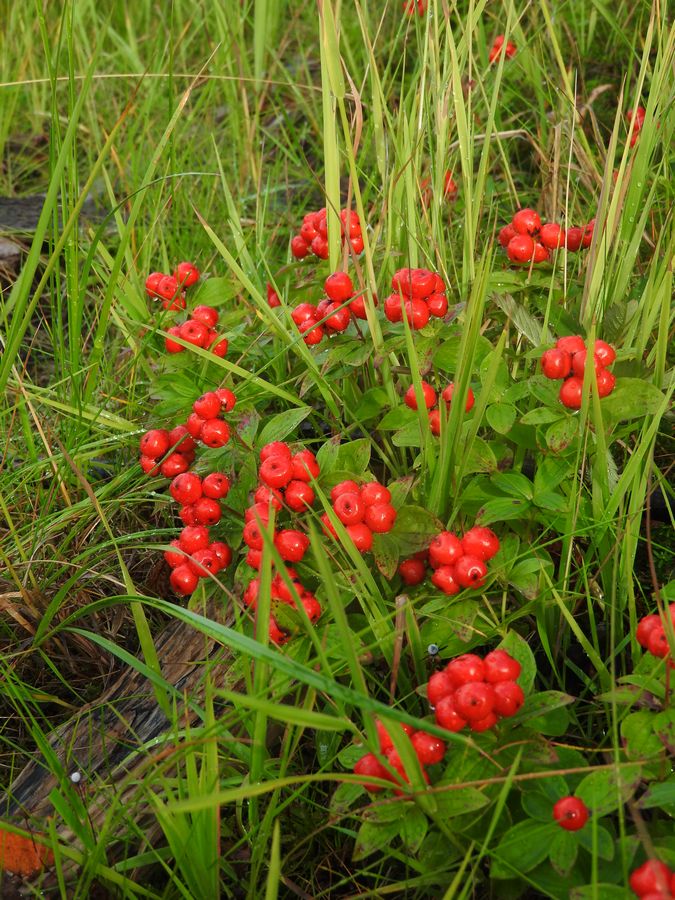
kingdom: Plantae
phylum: Tracheophyta
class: Magnoliopsida
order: Cornales
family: Cornaceae
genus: Cornus
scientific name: Cornus suecica
